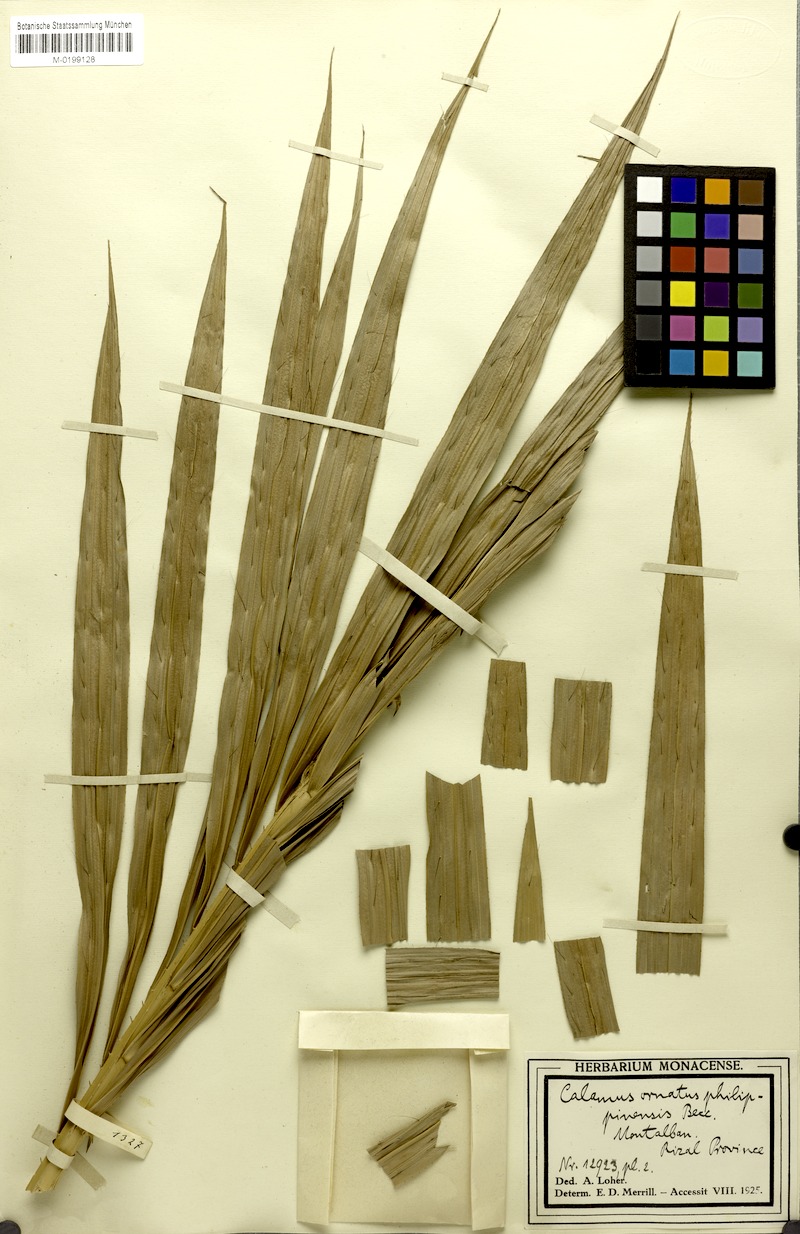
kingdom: Plantae
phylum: Tracheophyta
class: Liliopsida
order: Arecales
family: Arecaceae
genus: Calamus
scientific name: Calamus zollingeri
